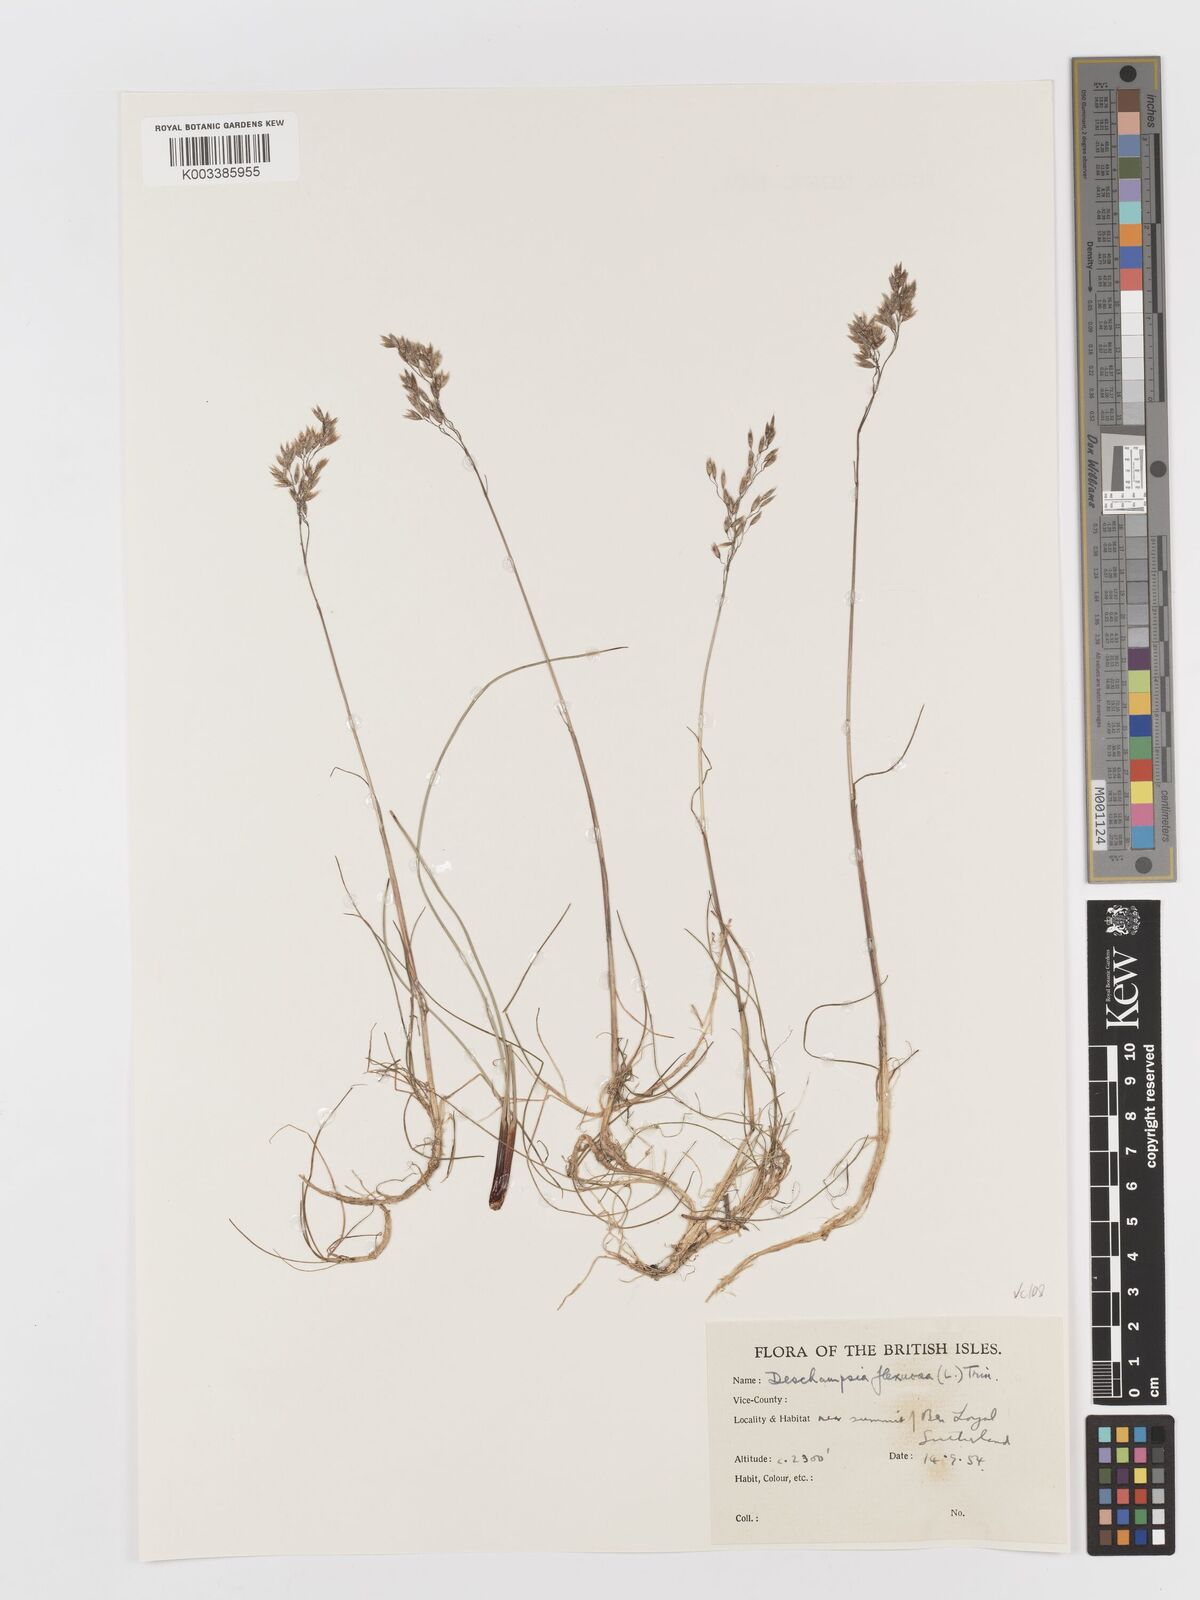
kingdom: Plantae
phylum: Tracheophyta
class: Liliopsida
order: Poales
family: Poaceae
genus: Avenella
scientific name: Avenella flexuosa
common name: Wavy hairgrass
